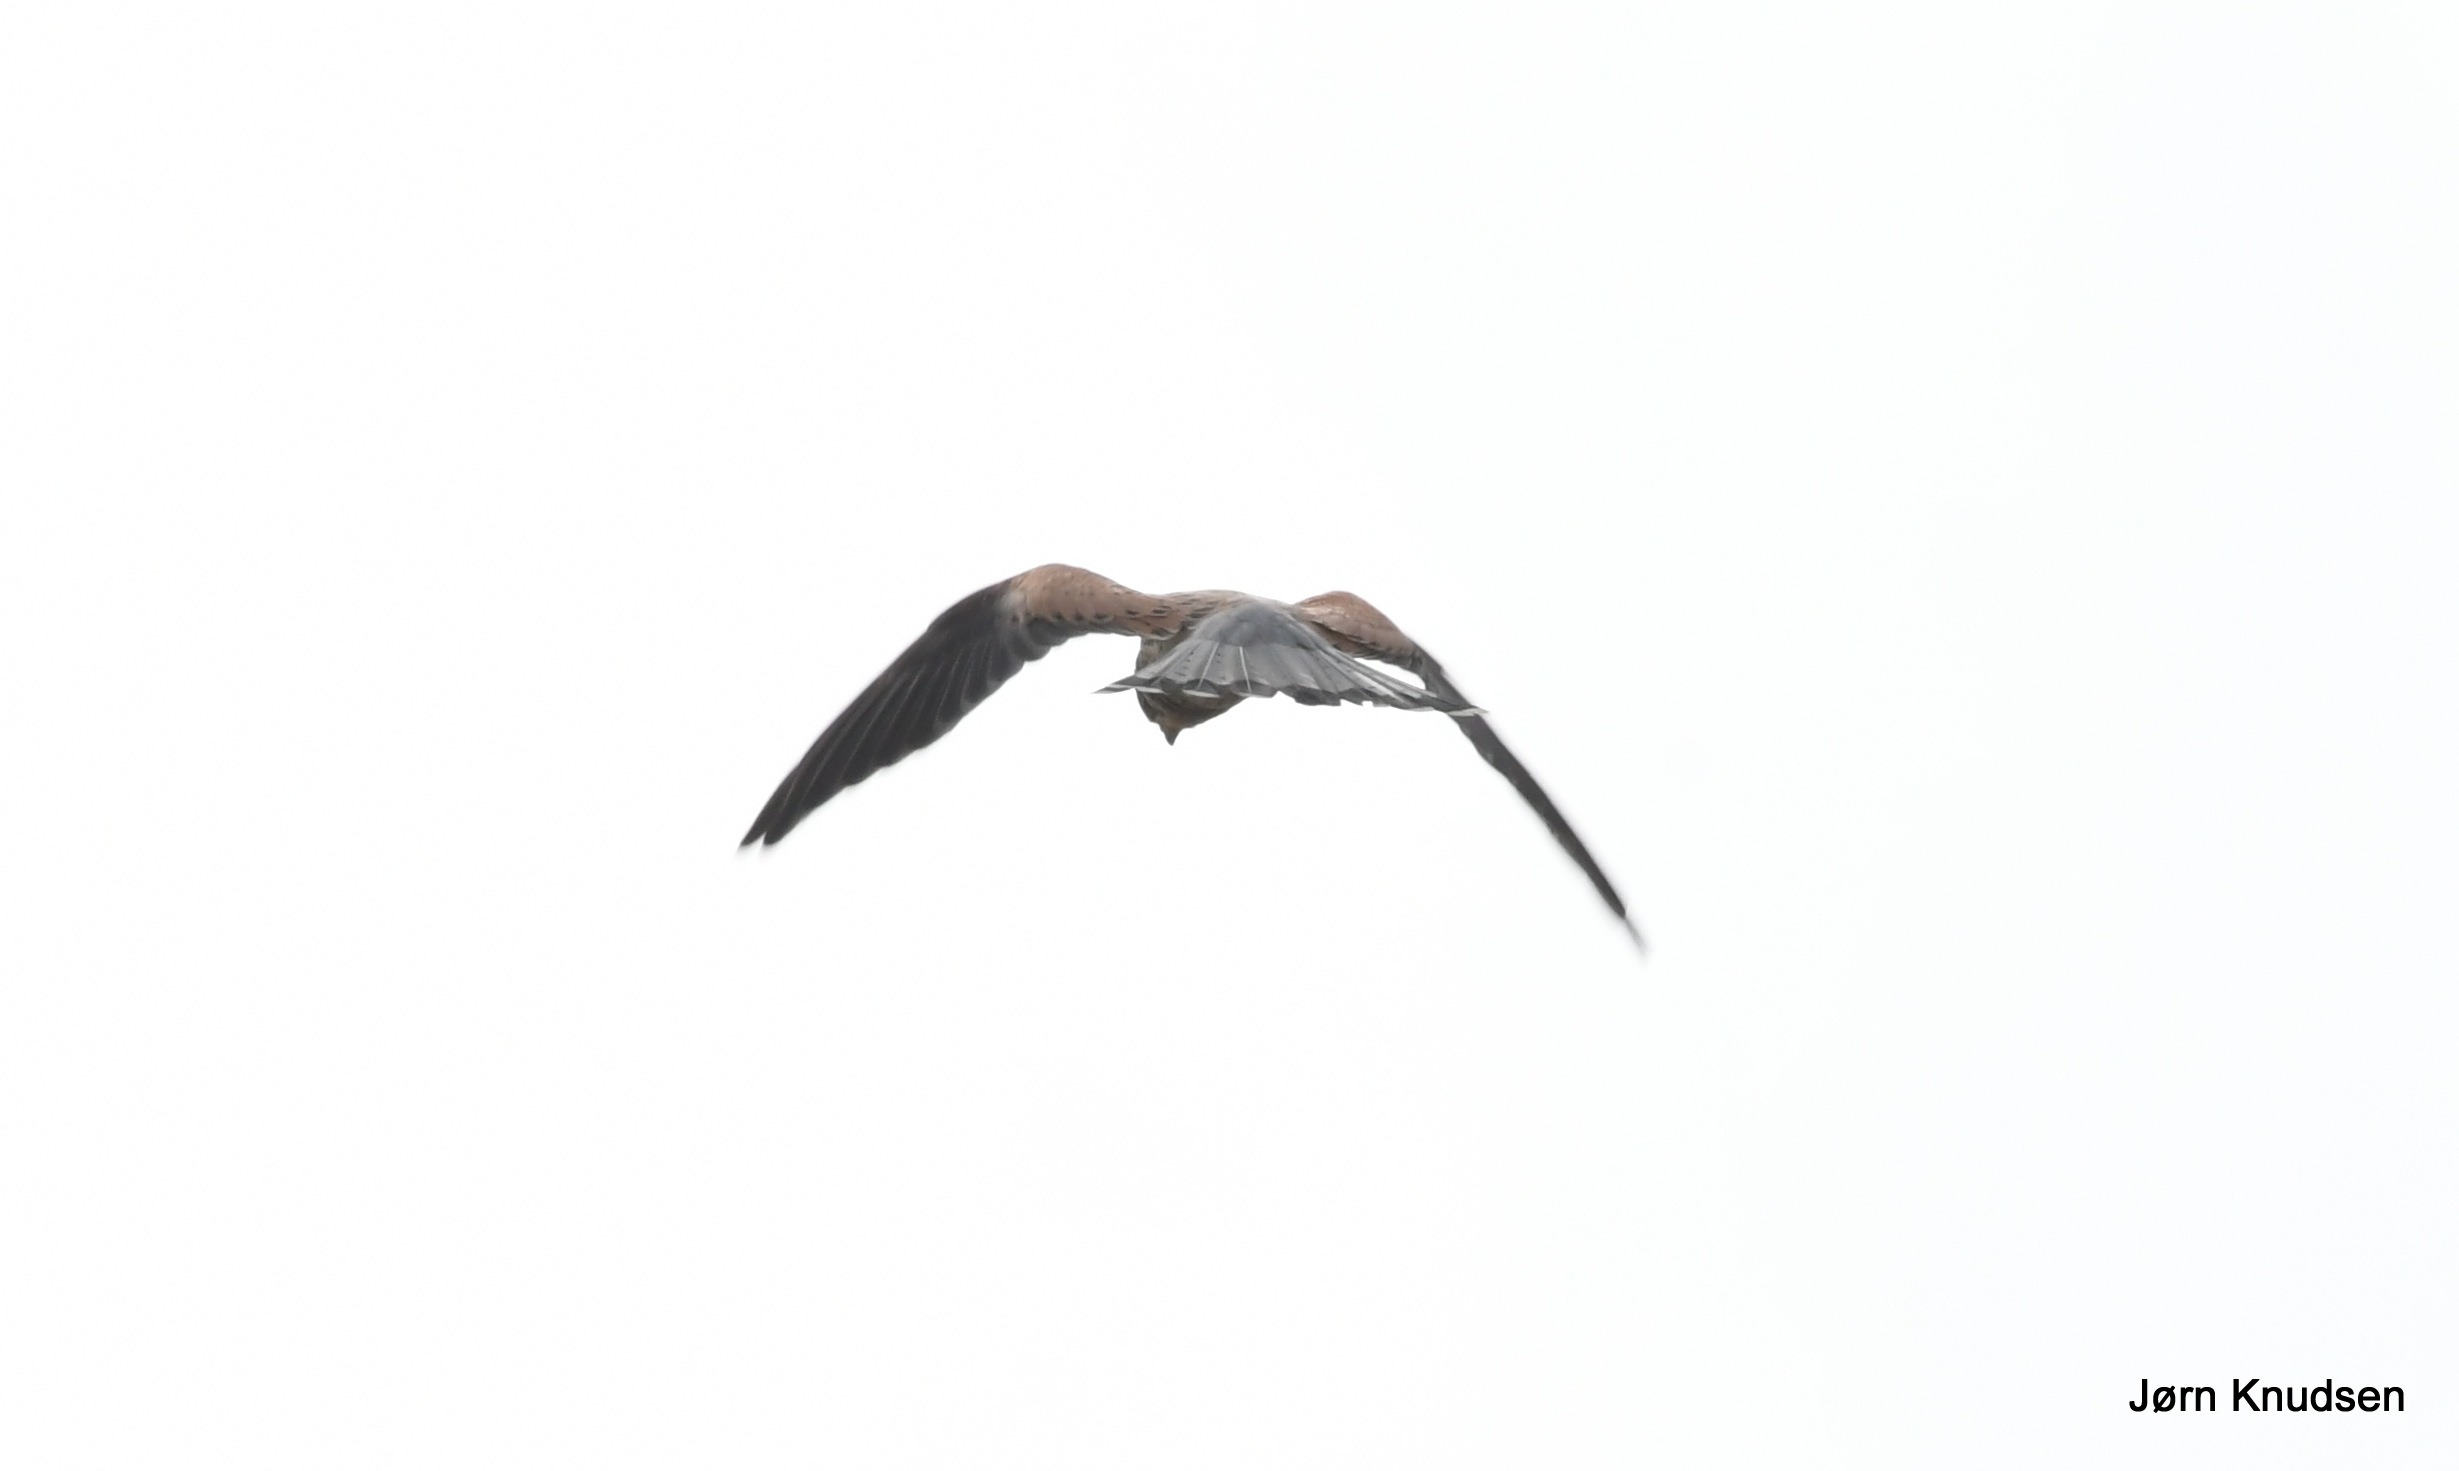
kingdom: Animalia
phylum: Chordata
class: Aves
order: Falconiformes
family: Falconidae
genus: Falco
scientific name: Falco tinnunculus
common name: Tårnfalk
